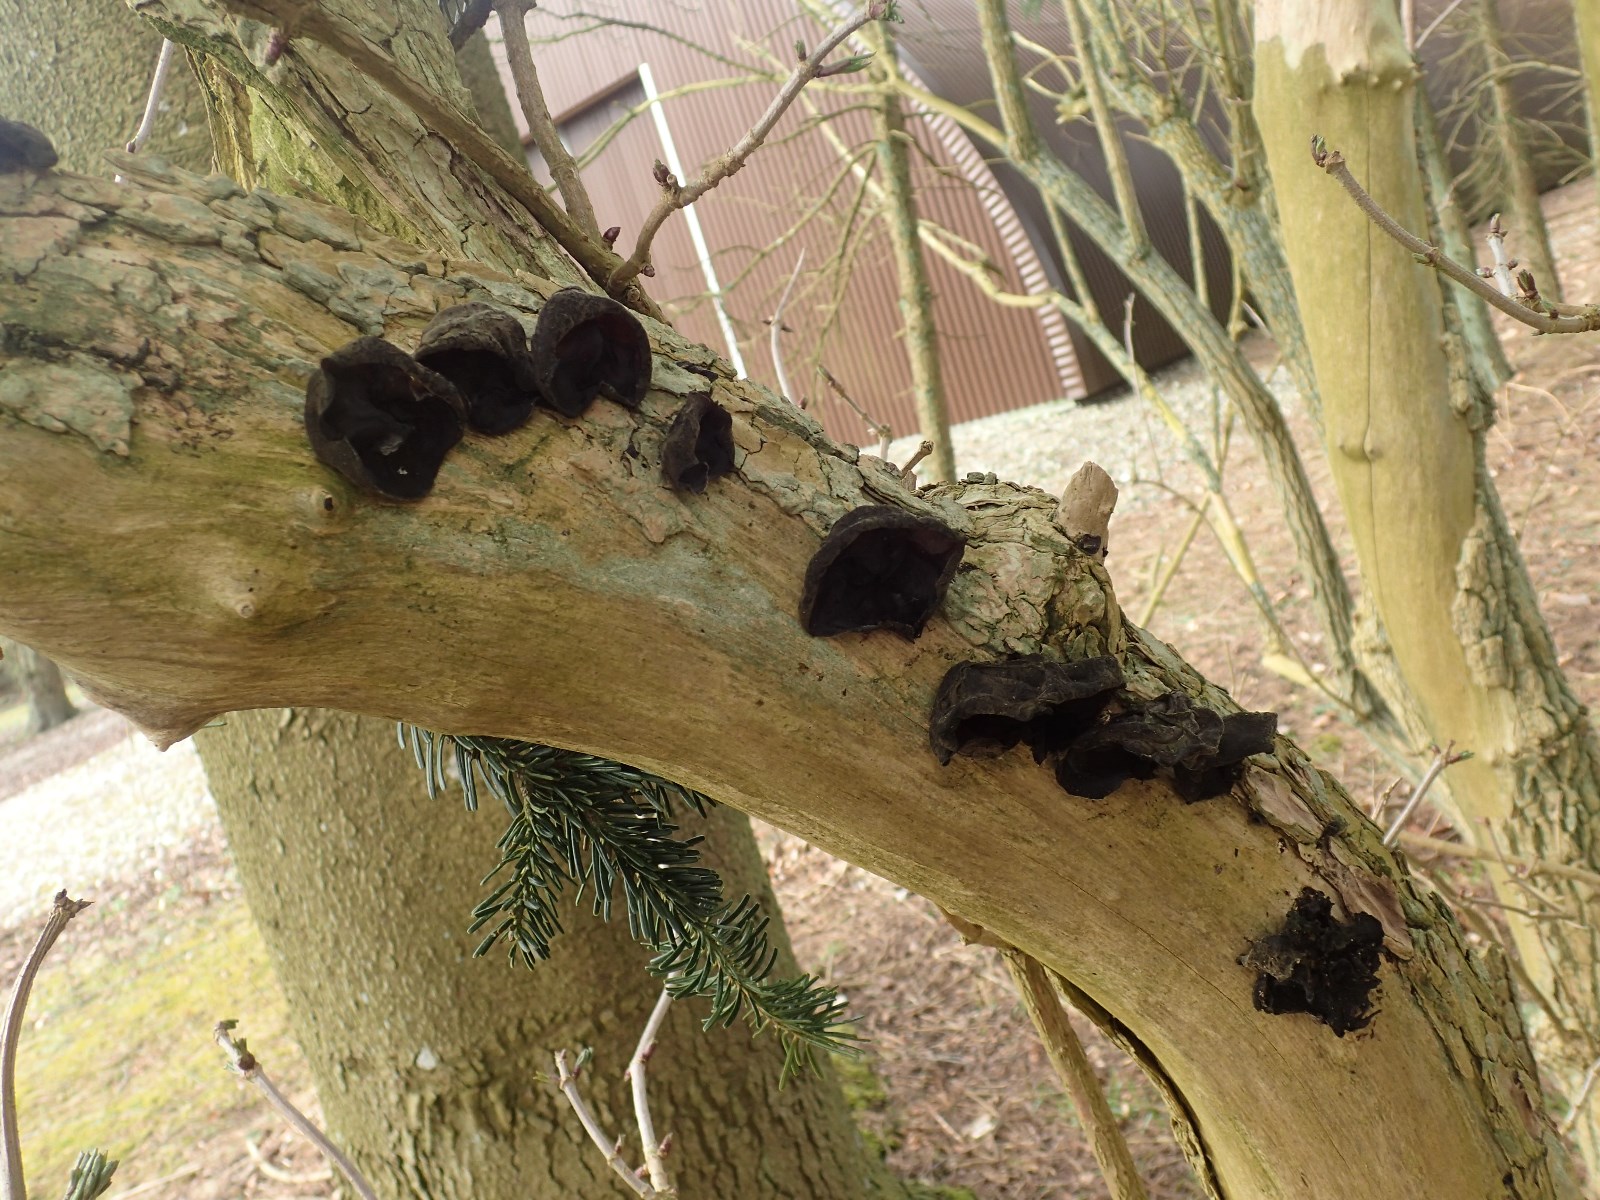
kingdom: Fungi
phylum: Basidiomycota
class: Agaricomycetes
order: Auriculariales
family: Auriculariaceae
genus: Auricularia
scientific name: Auricularia auricula-judae
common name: almindelig judasøre
